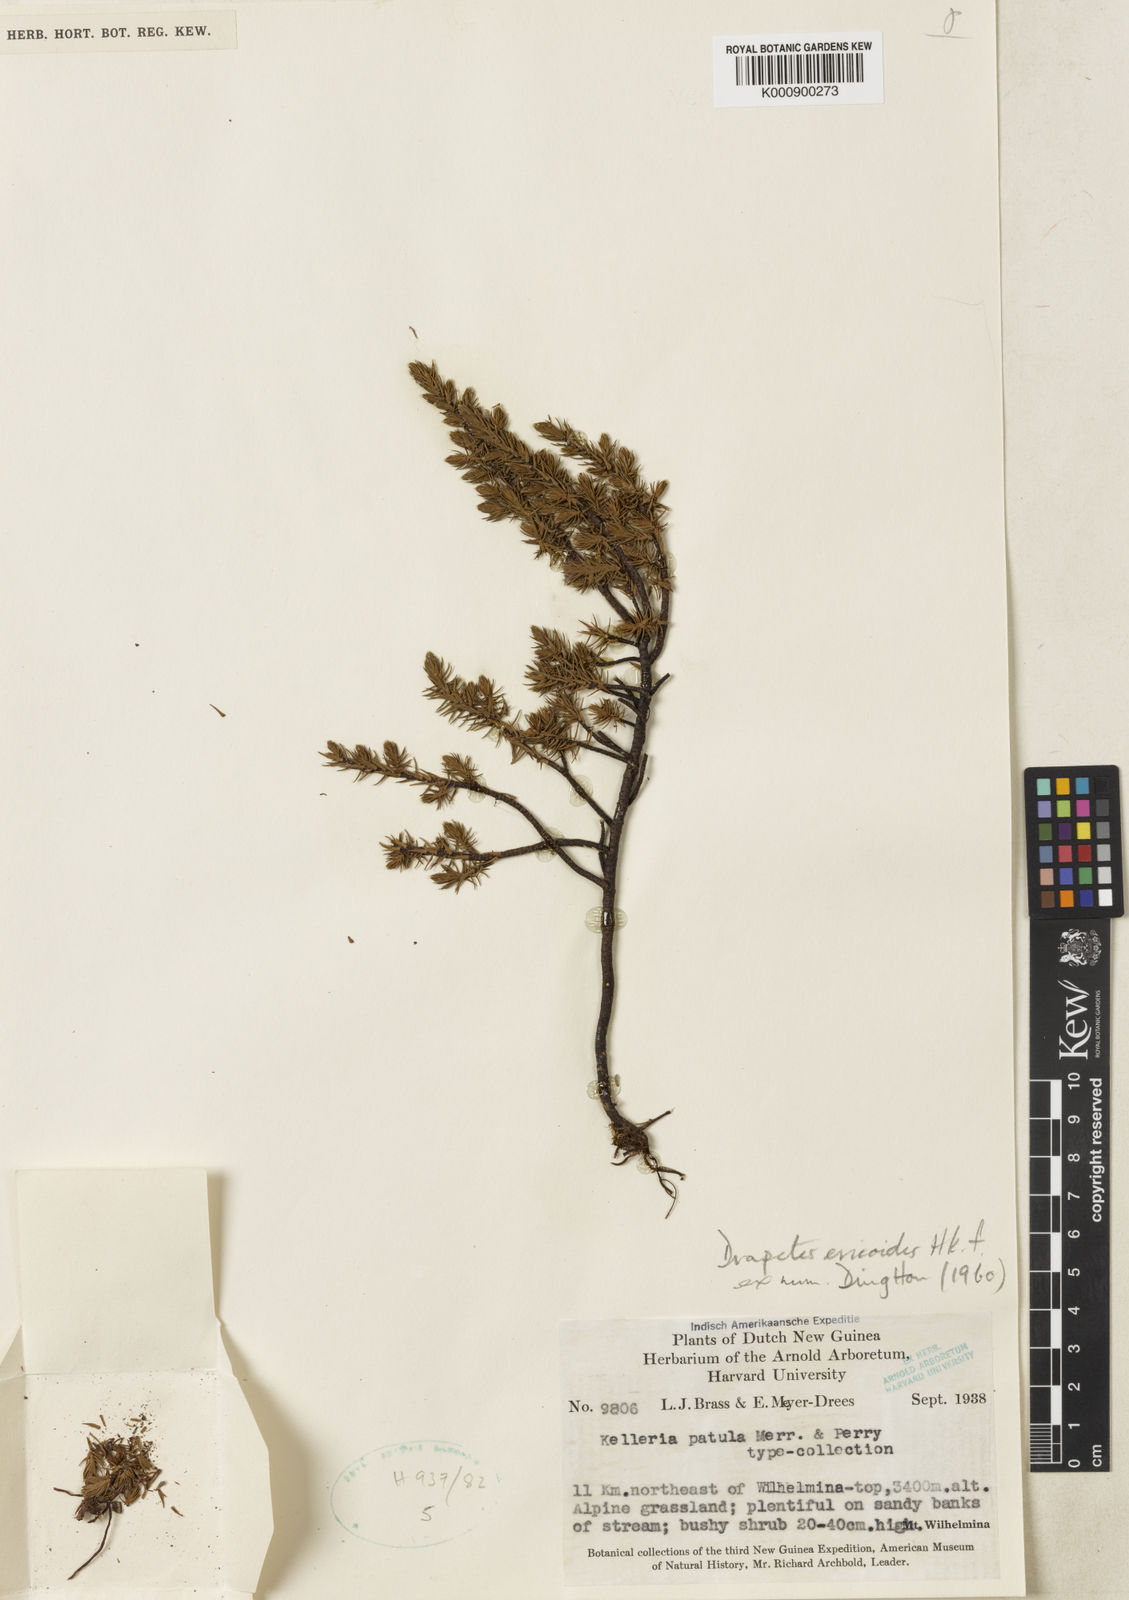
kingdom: Plantae
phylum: Tracheophyta
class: Magnoliopsida
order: Malvales
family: Thymelaeaceae
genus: Kelleria
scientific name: Kelleria patula
